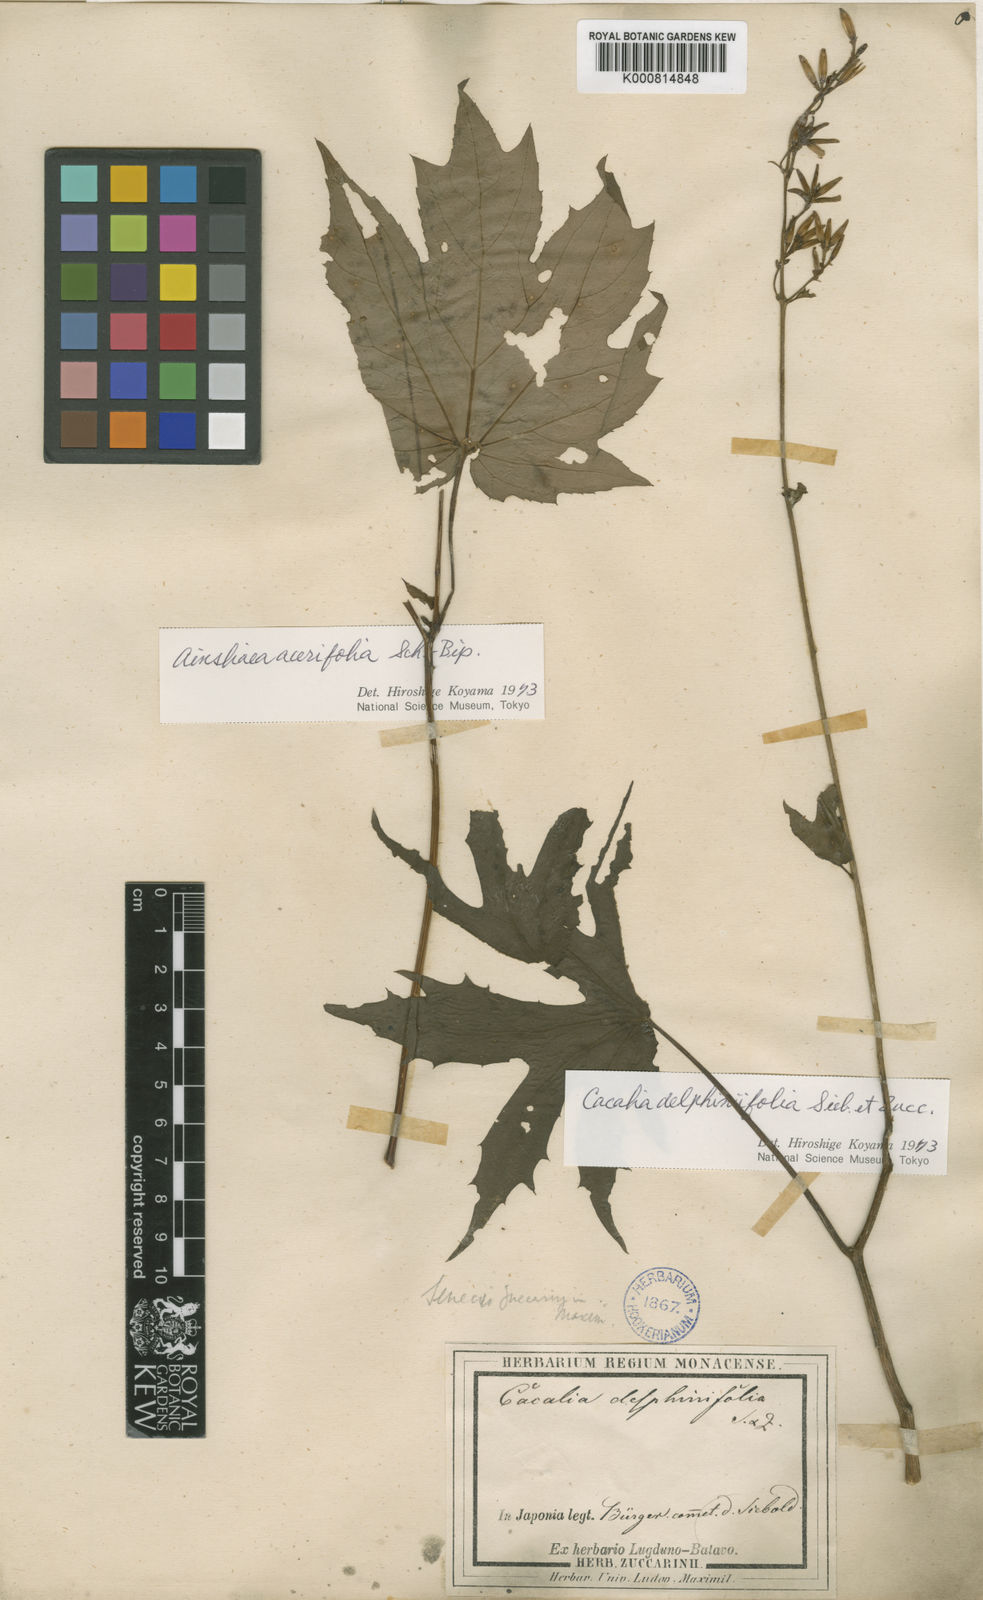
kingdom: Plantae
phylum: Tracheophyta
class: Magnoliopsida
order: Asterales
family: Asteraceae
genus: Japonicalia
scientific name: Japonicalia delphiniifolia
